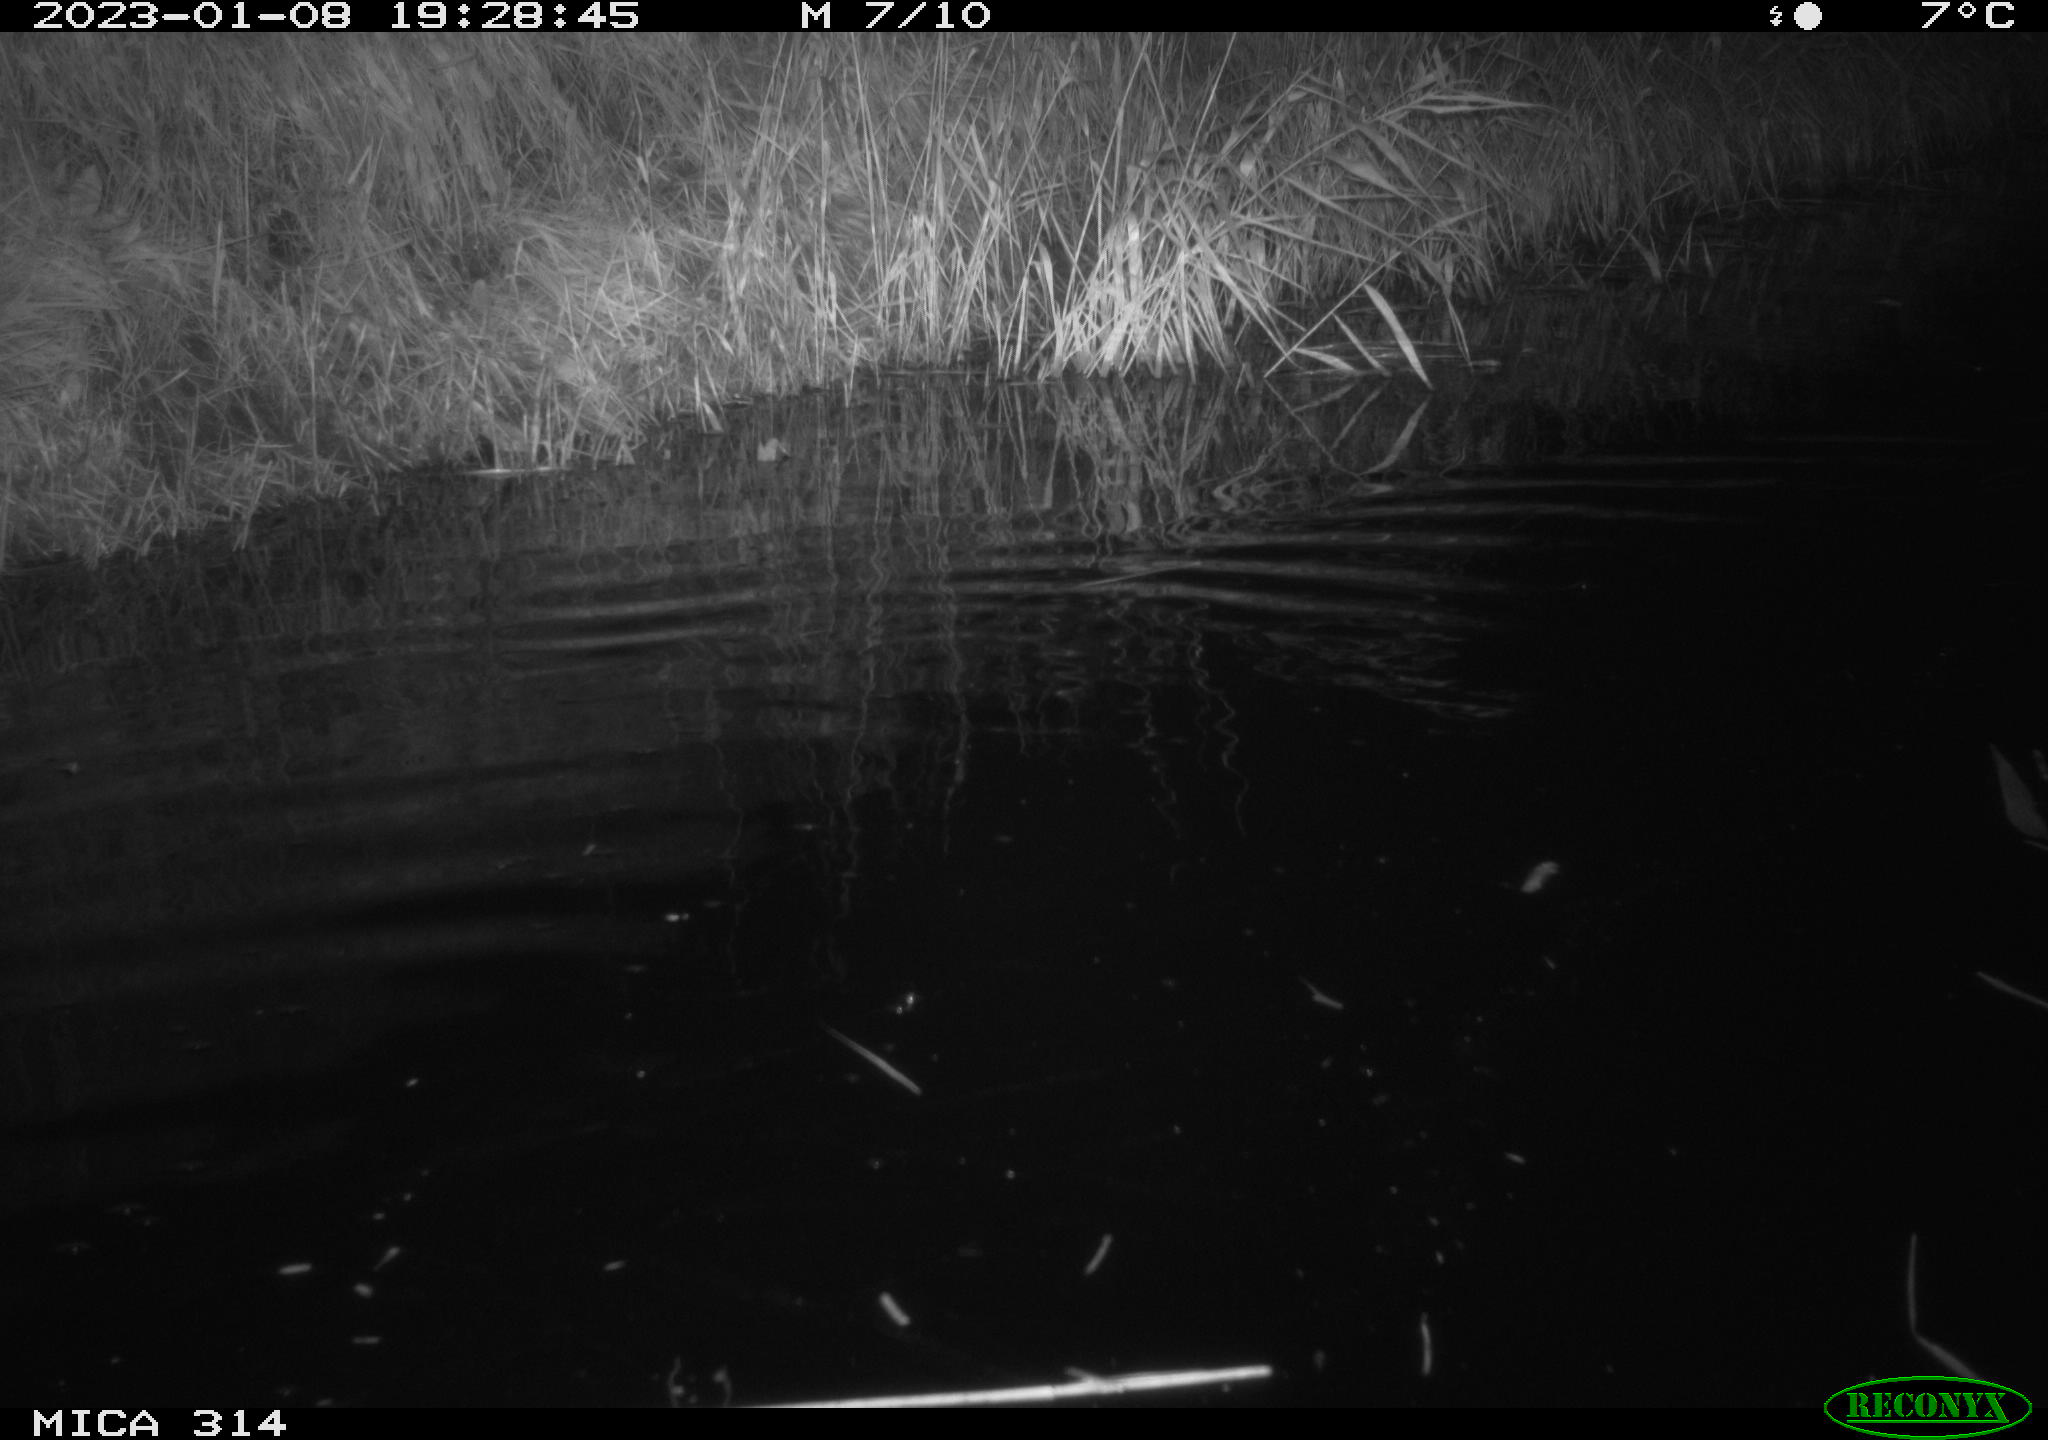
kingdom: Animalia
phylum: Chordata
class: Mammalia
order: Rodentia
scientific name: Rodentia
